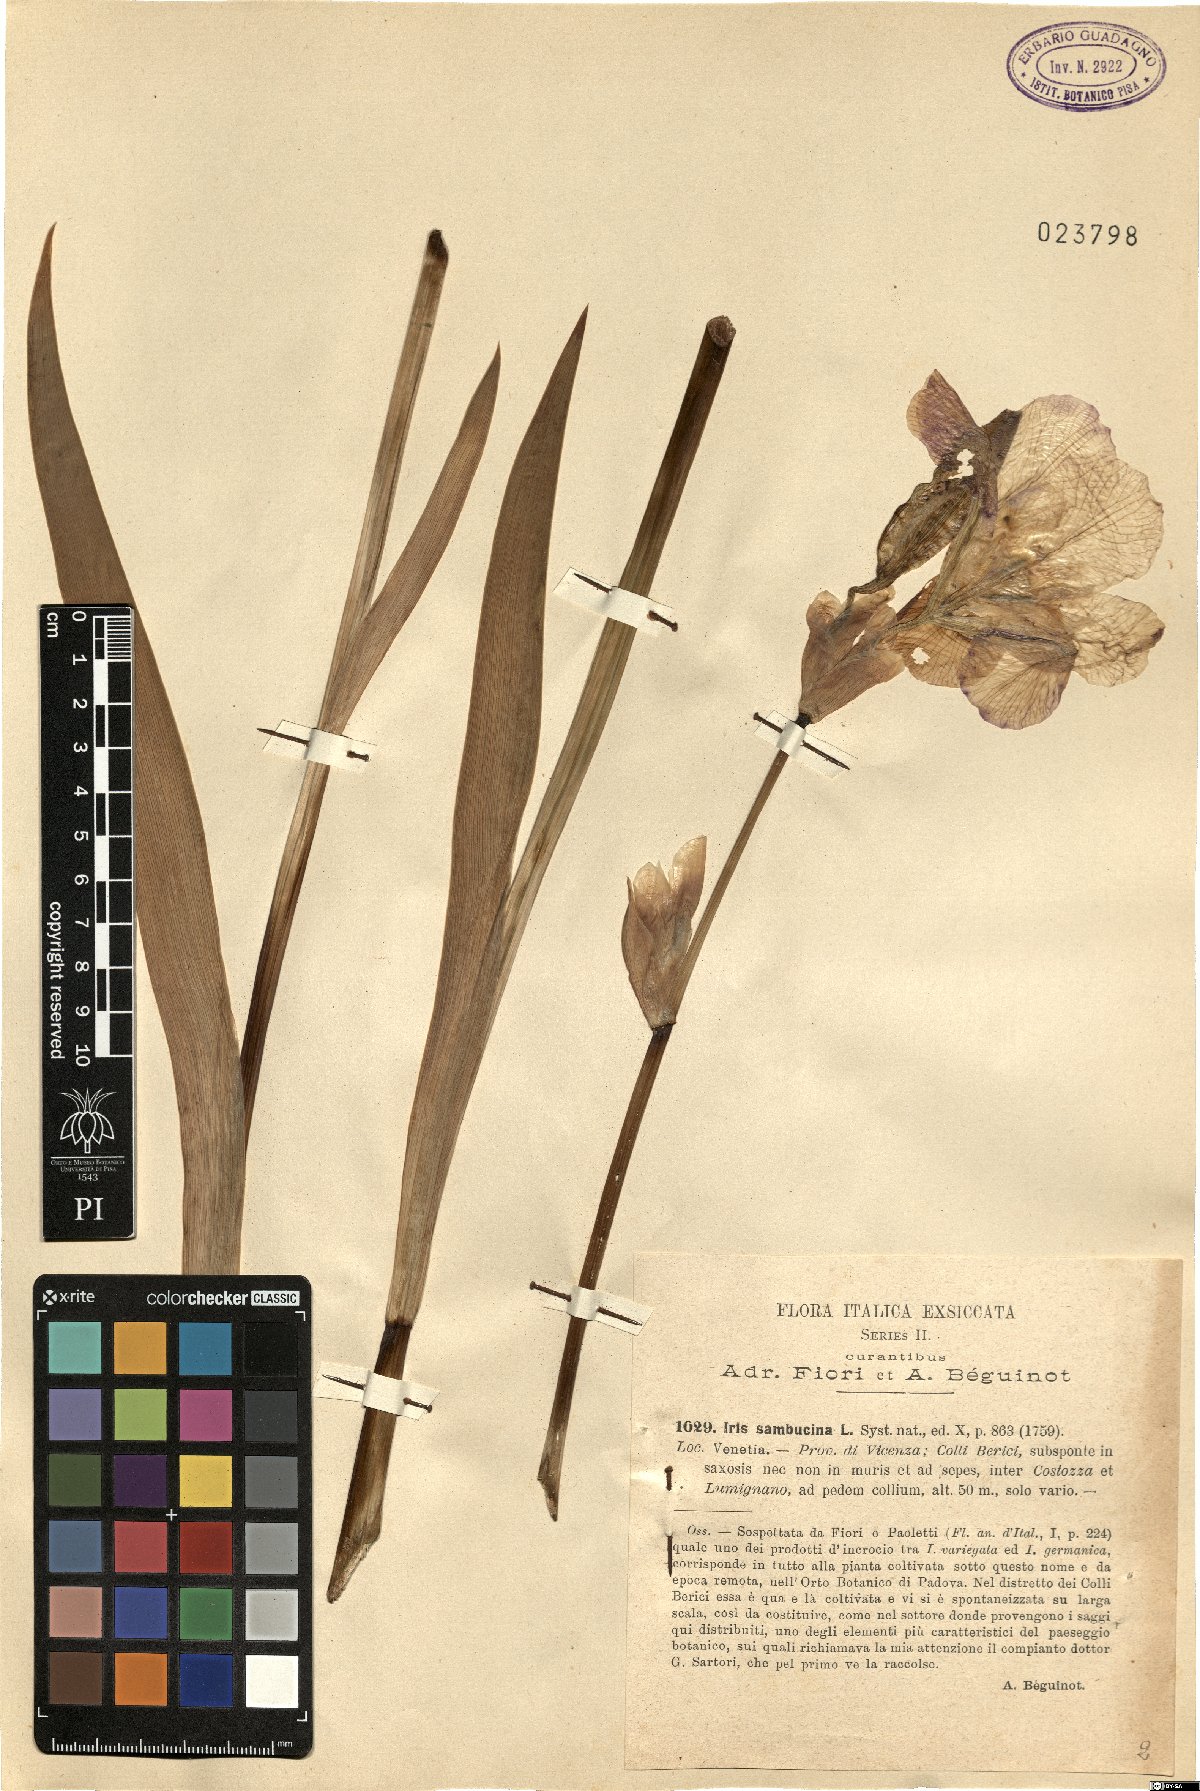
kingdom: Plantae
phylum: Tracheophyta
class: Liliopsida
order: Asparagales
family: Iridaceae
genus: Iris
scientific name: Iris germanica
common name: German iris
